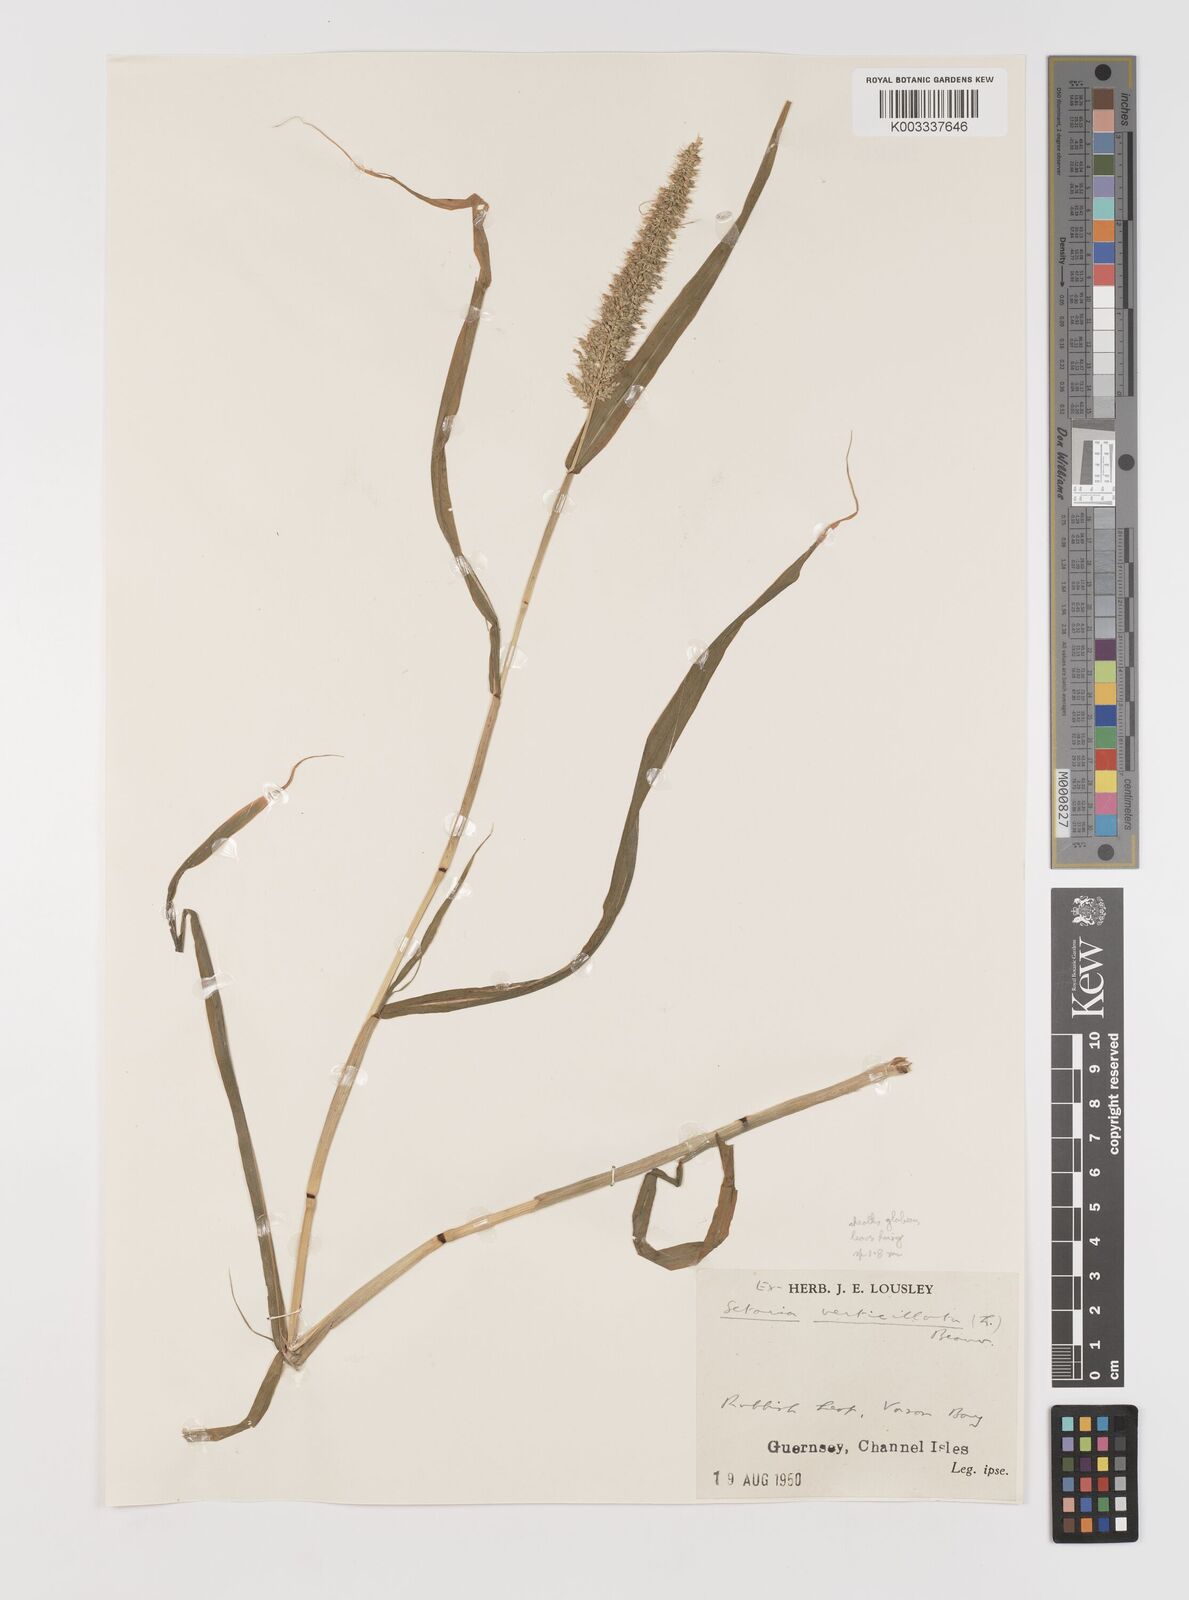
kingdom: Plantae
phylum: Tracheophyta
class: Liliopsida
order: Poales
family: Poaceae
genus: Setaria
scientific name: Setaria verticillata
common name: Hooked bristlegrass
